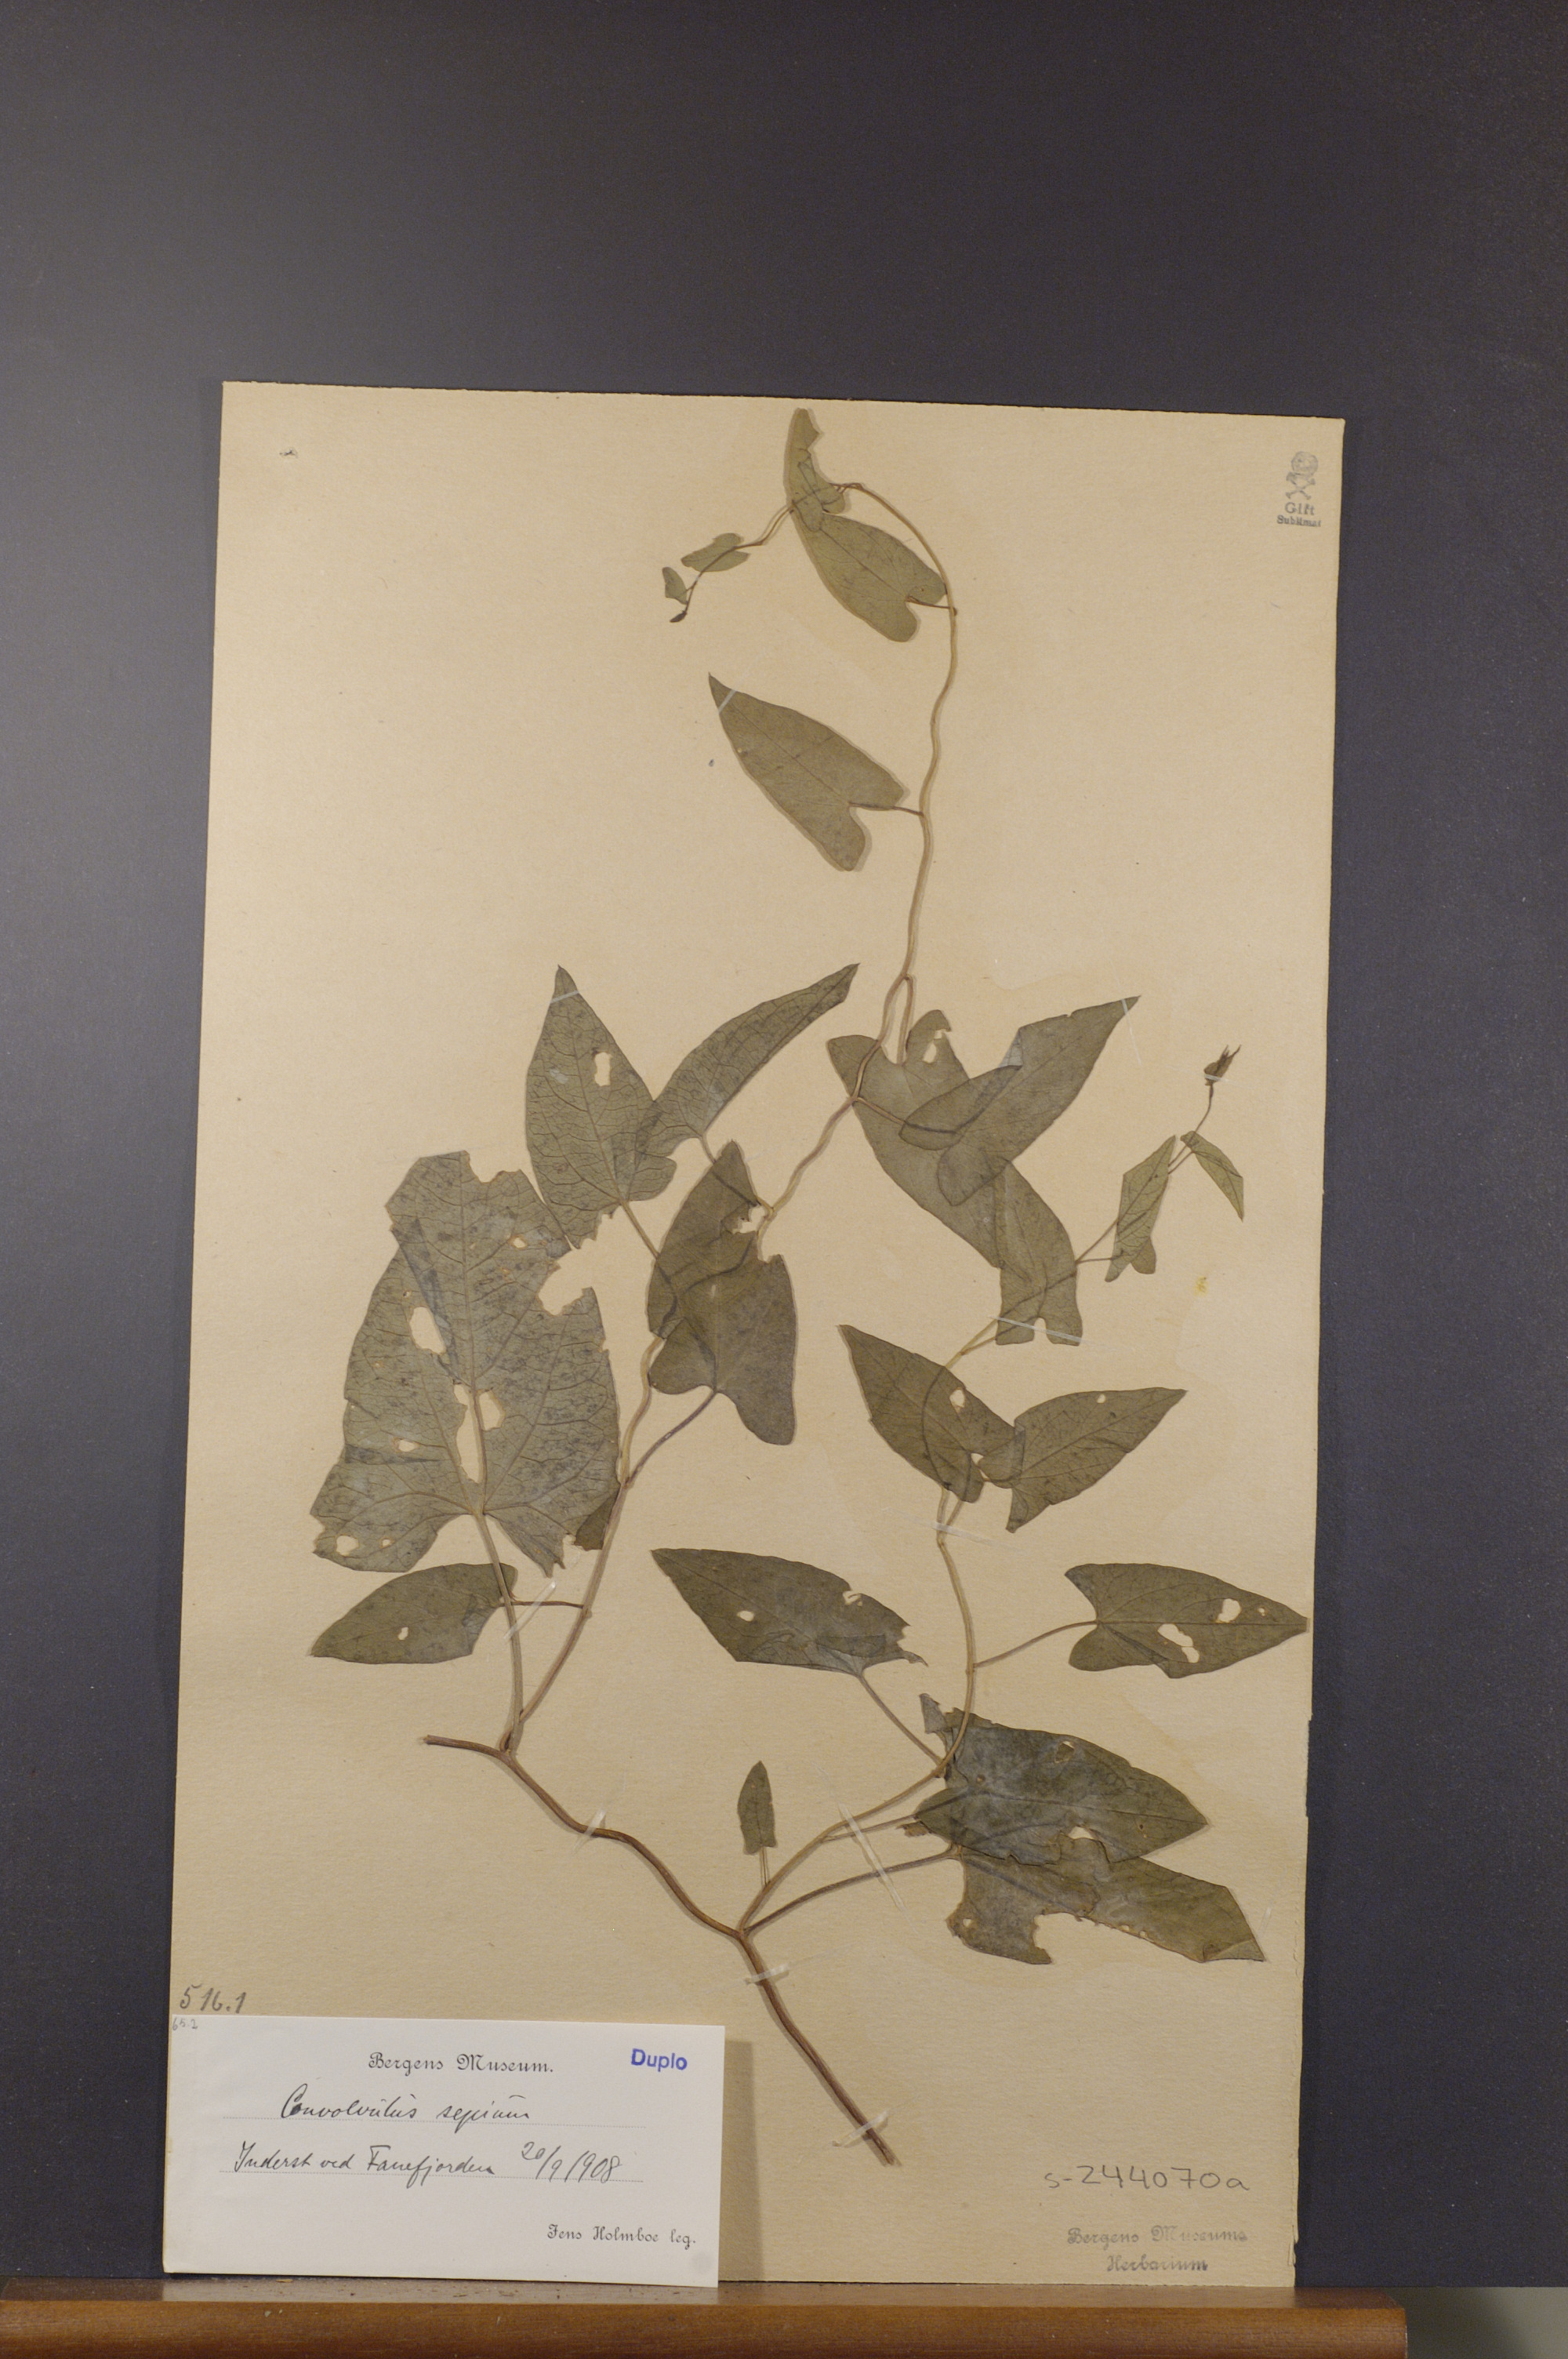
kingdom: Plantae
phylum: Tracheophyta
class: Magnoliopsida
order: Solanales
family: Convolvulaceae
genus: Calystegia
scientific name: Calystegia sepium
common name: Hedge bindweed
